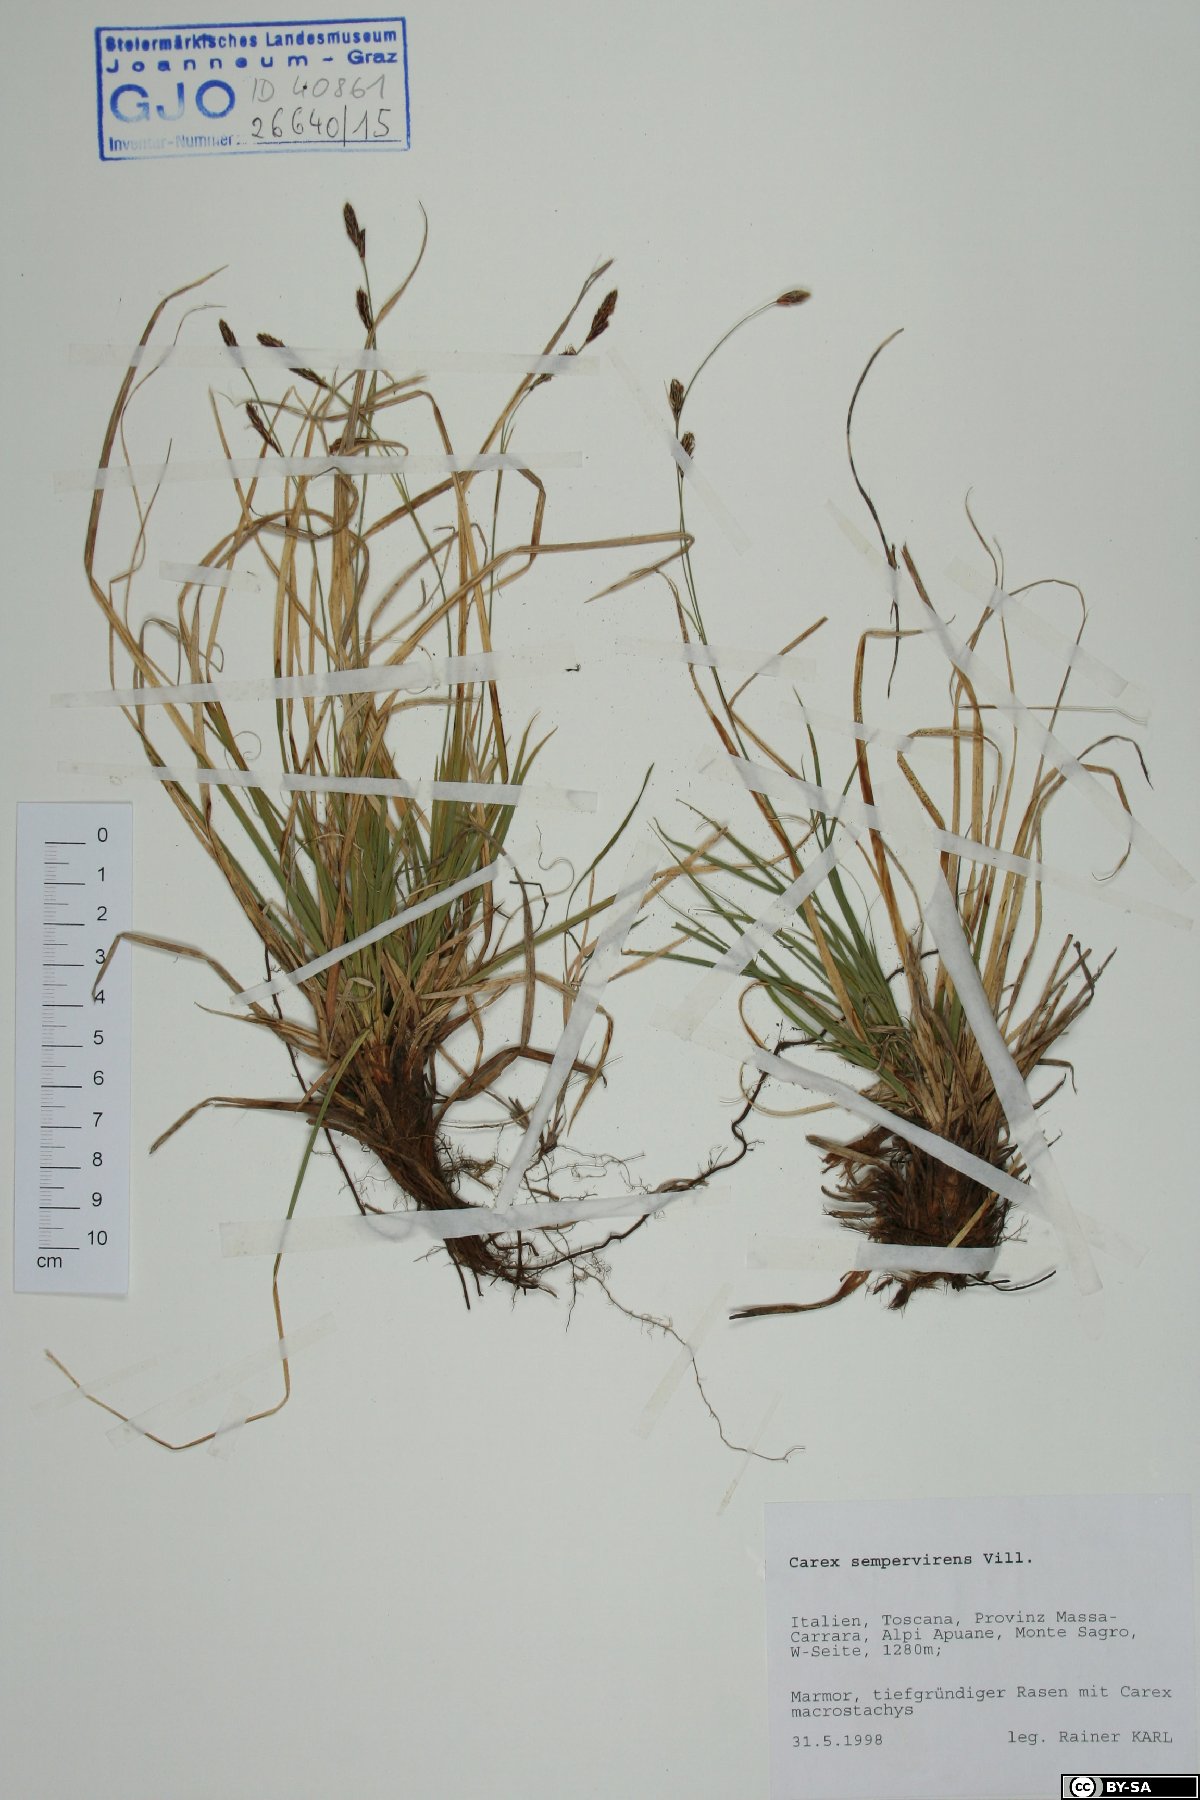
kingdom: Plantae
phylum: Tracheophyta
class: Liliopsida
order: Poales
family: Cyperaceae
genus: Carex
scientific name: Carex sempervirens
